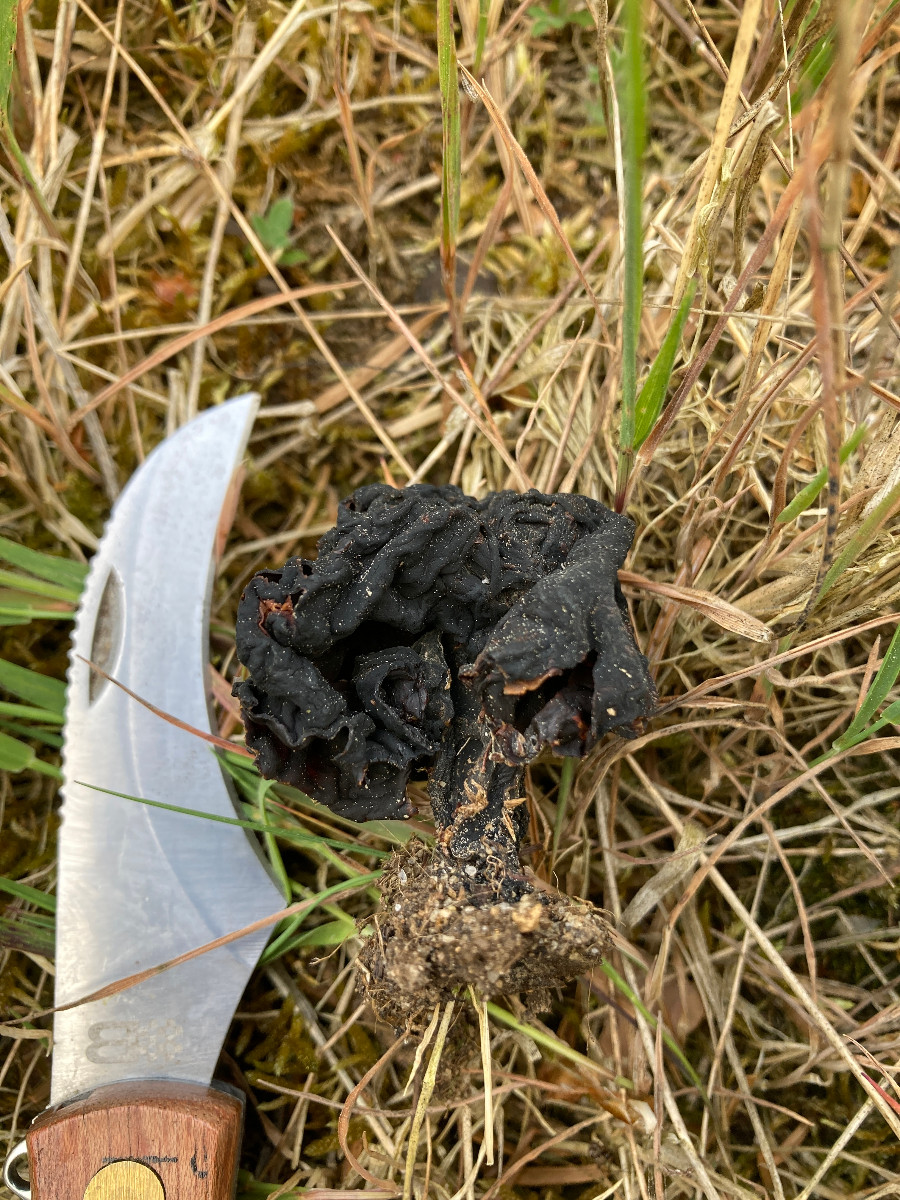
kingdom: Fungi
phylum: Ascomycota
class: Pezizomycetes
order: Pezizales
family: Discinaceae
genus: Gyromitra
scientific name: Gyromitra esculenta
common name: ægte stenmorkel
